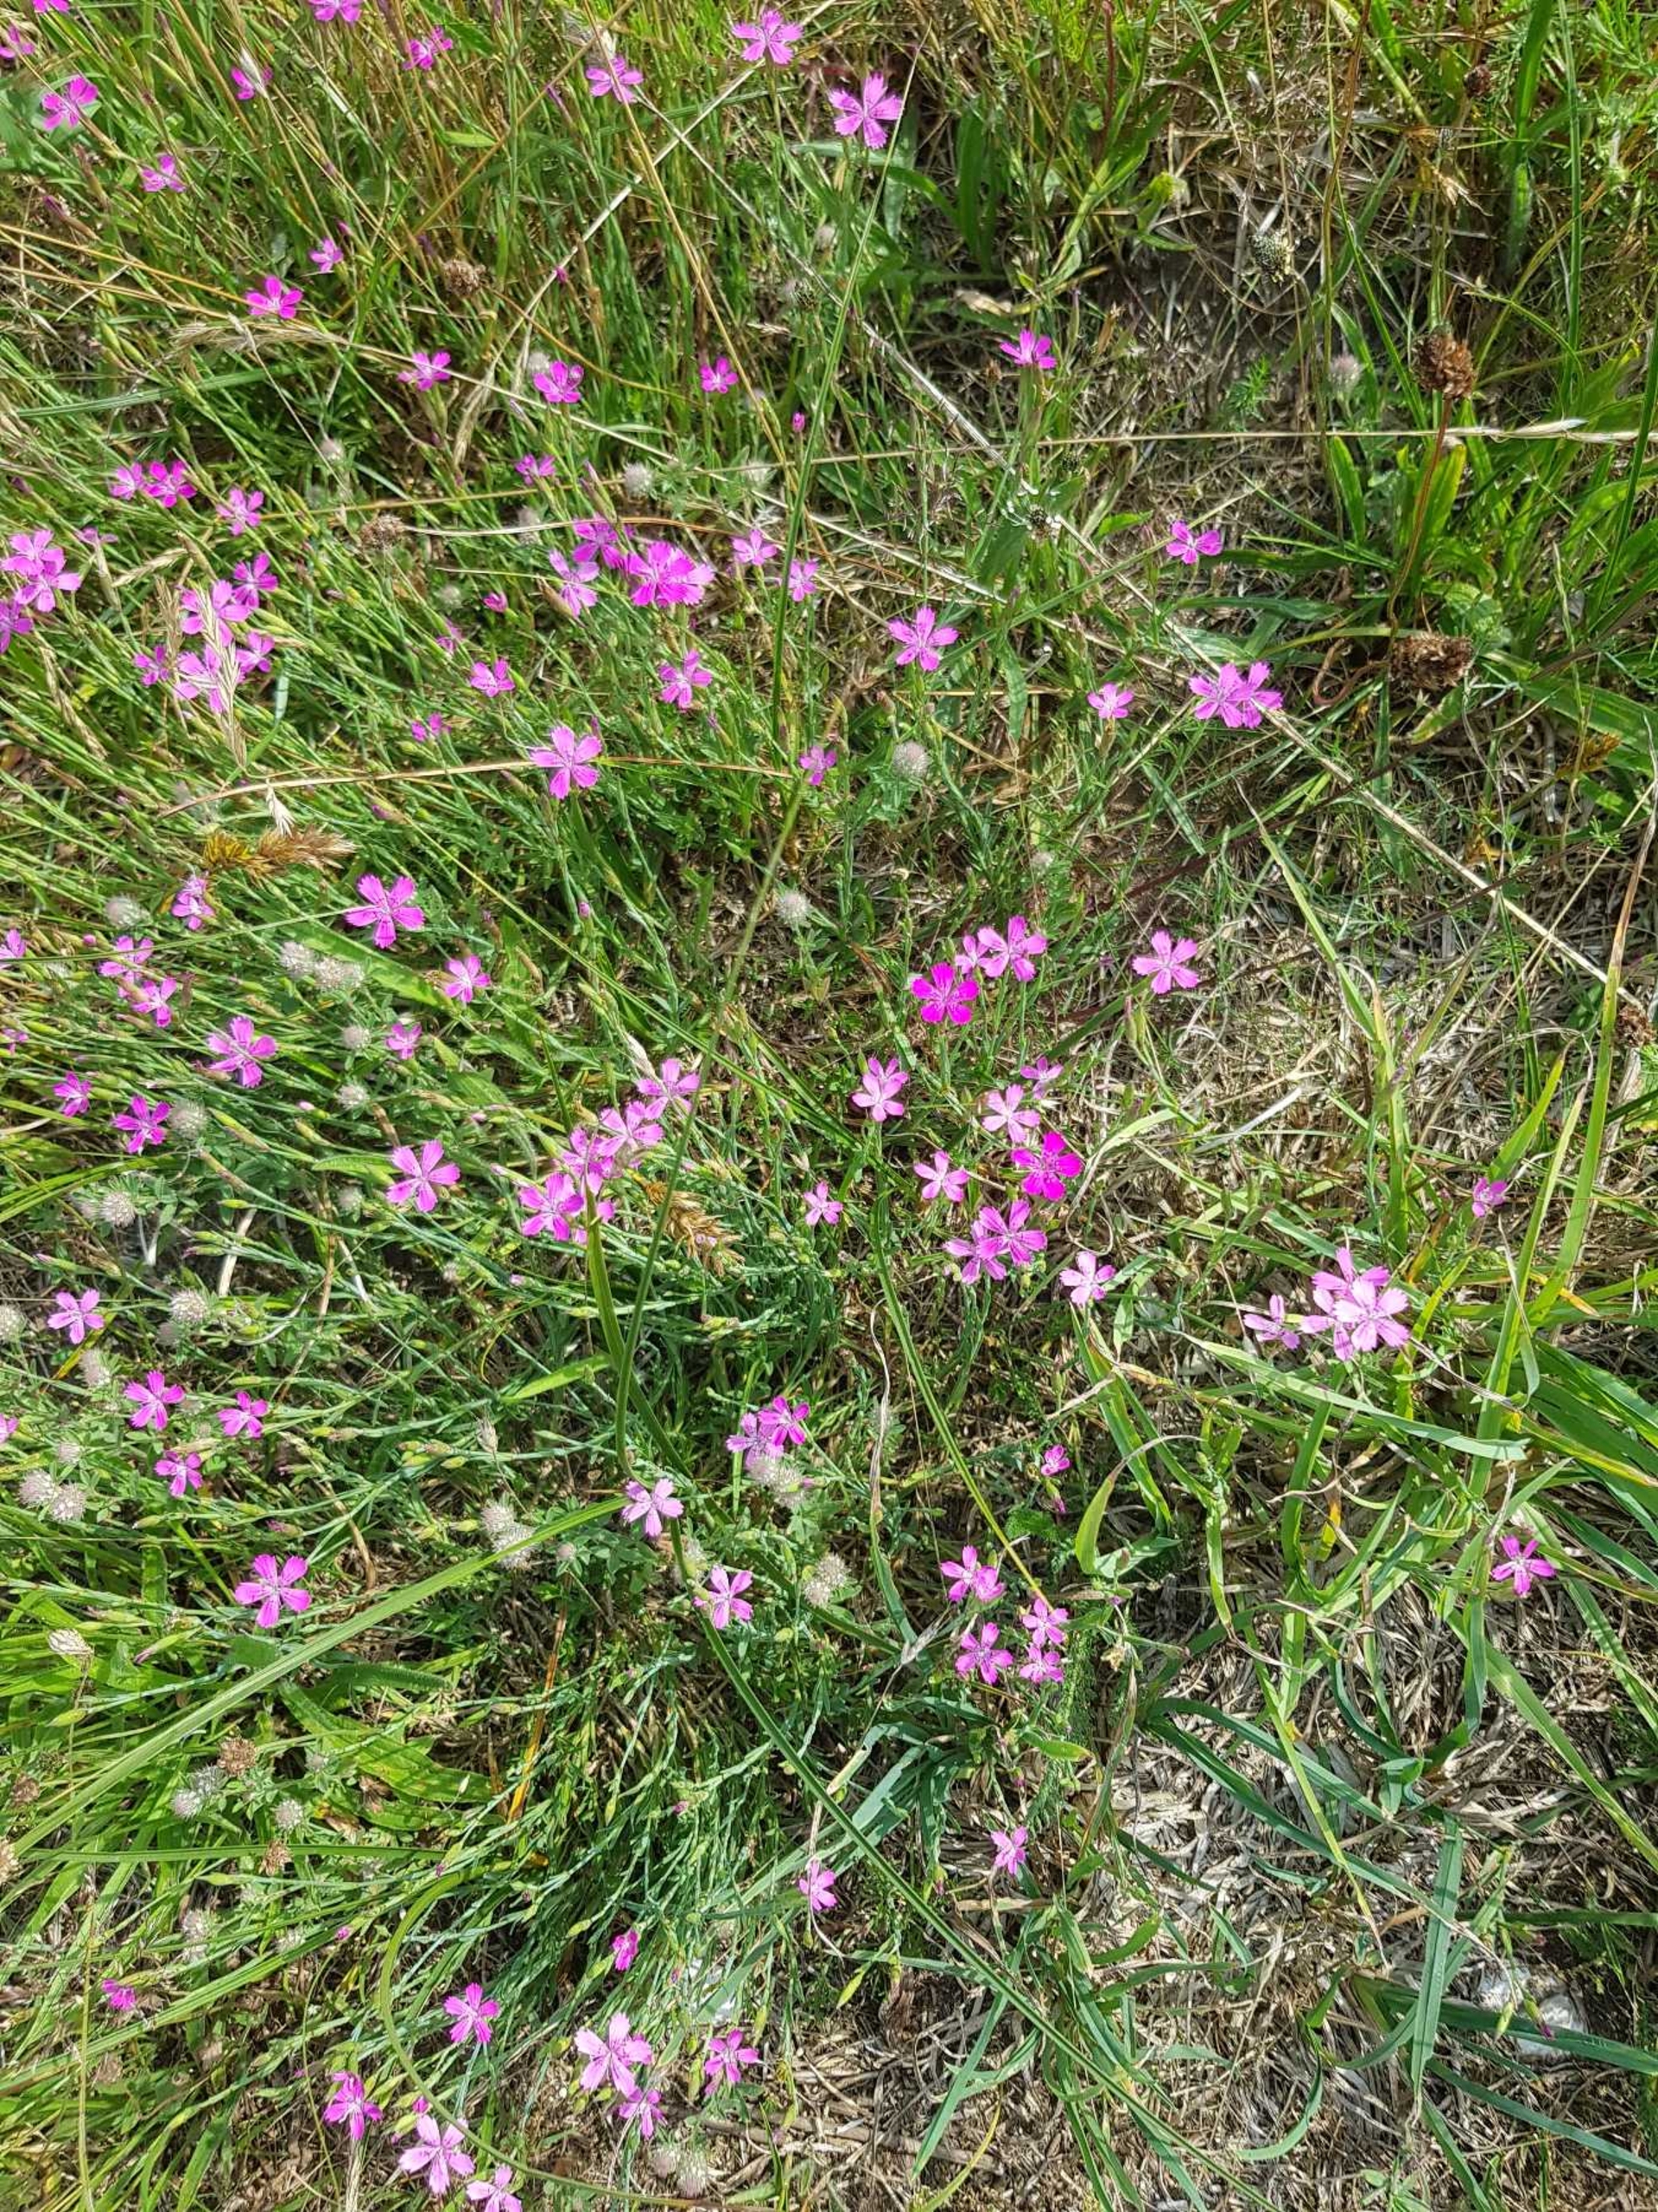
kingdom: Plantae
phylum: Tracheophyta
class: Magnoliopsida
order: Caryophyllales
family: Caryophyllaceae
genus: Dianthus
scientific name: Dianthus deltoides
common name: Bakke-nellike
